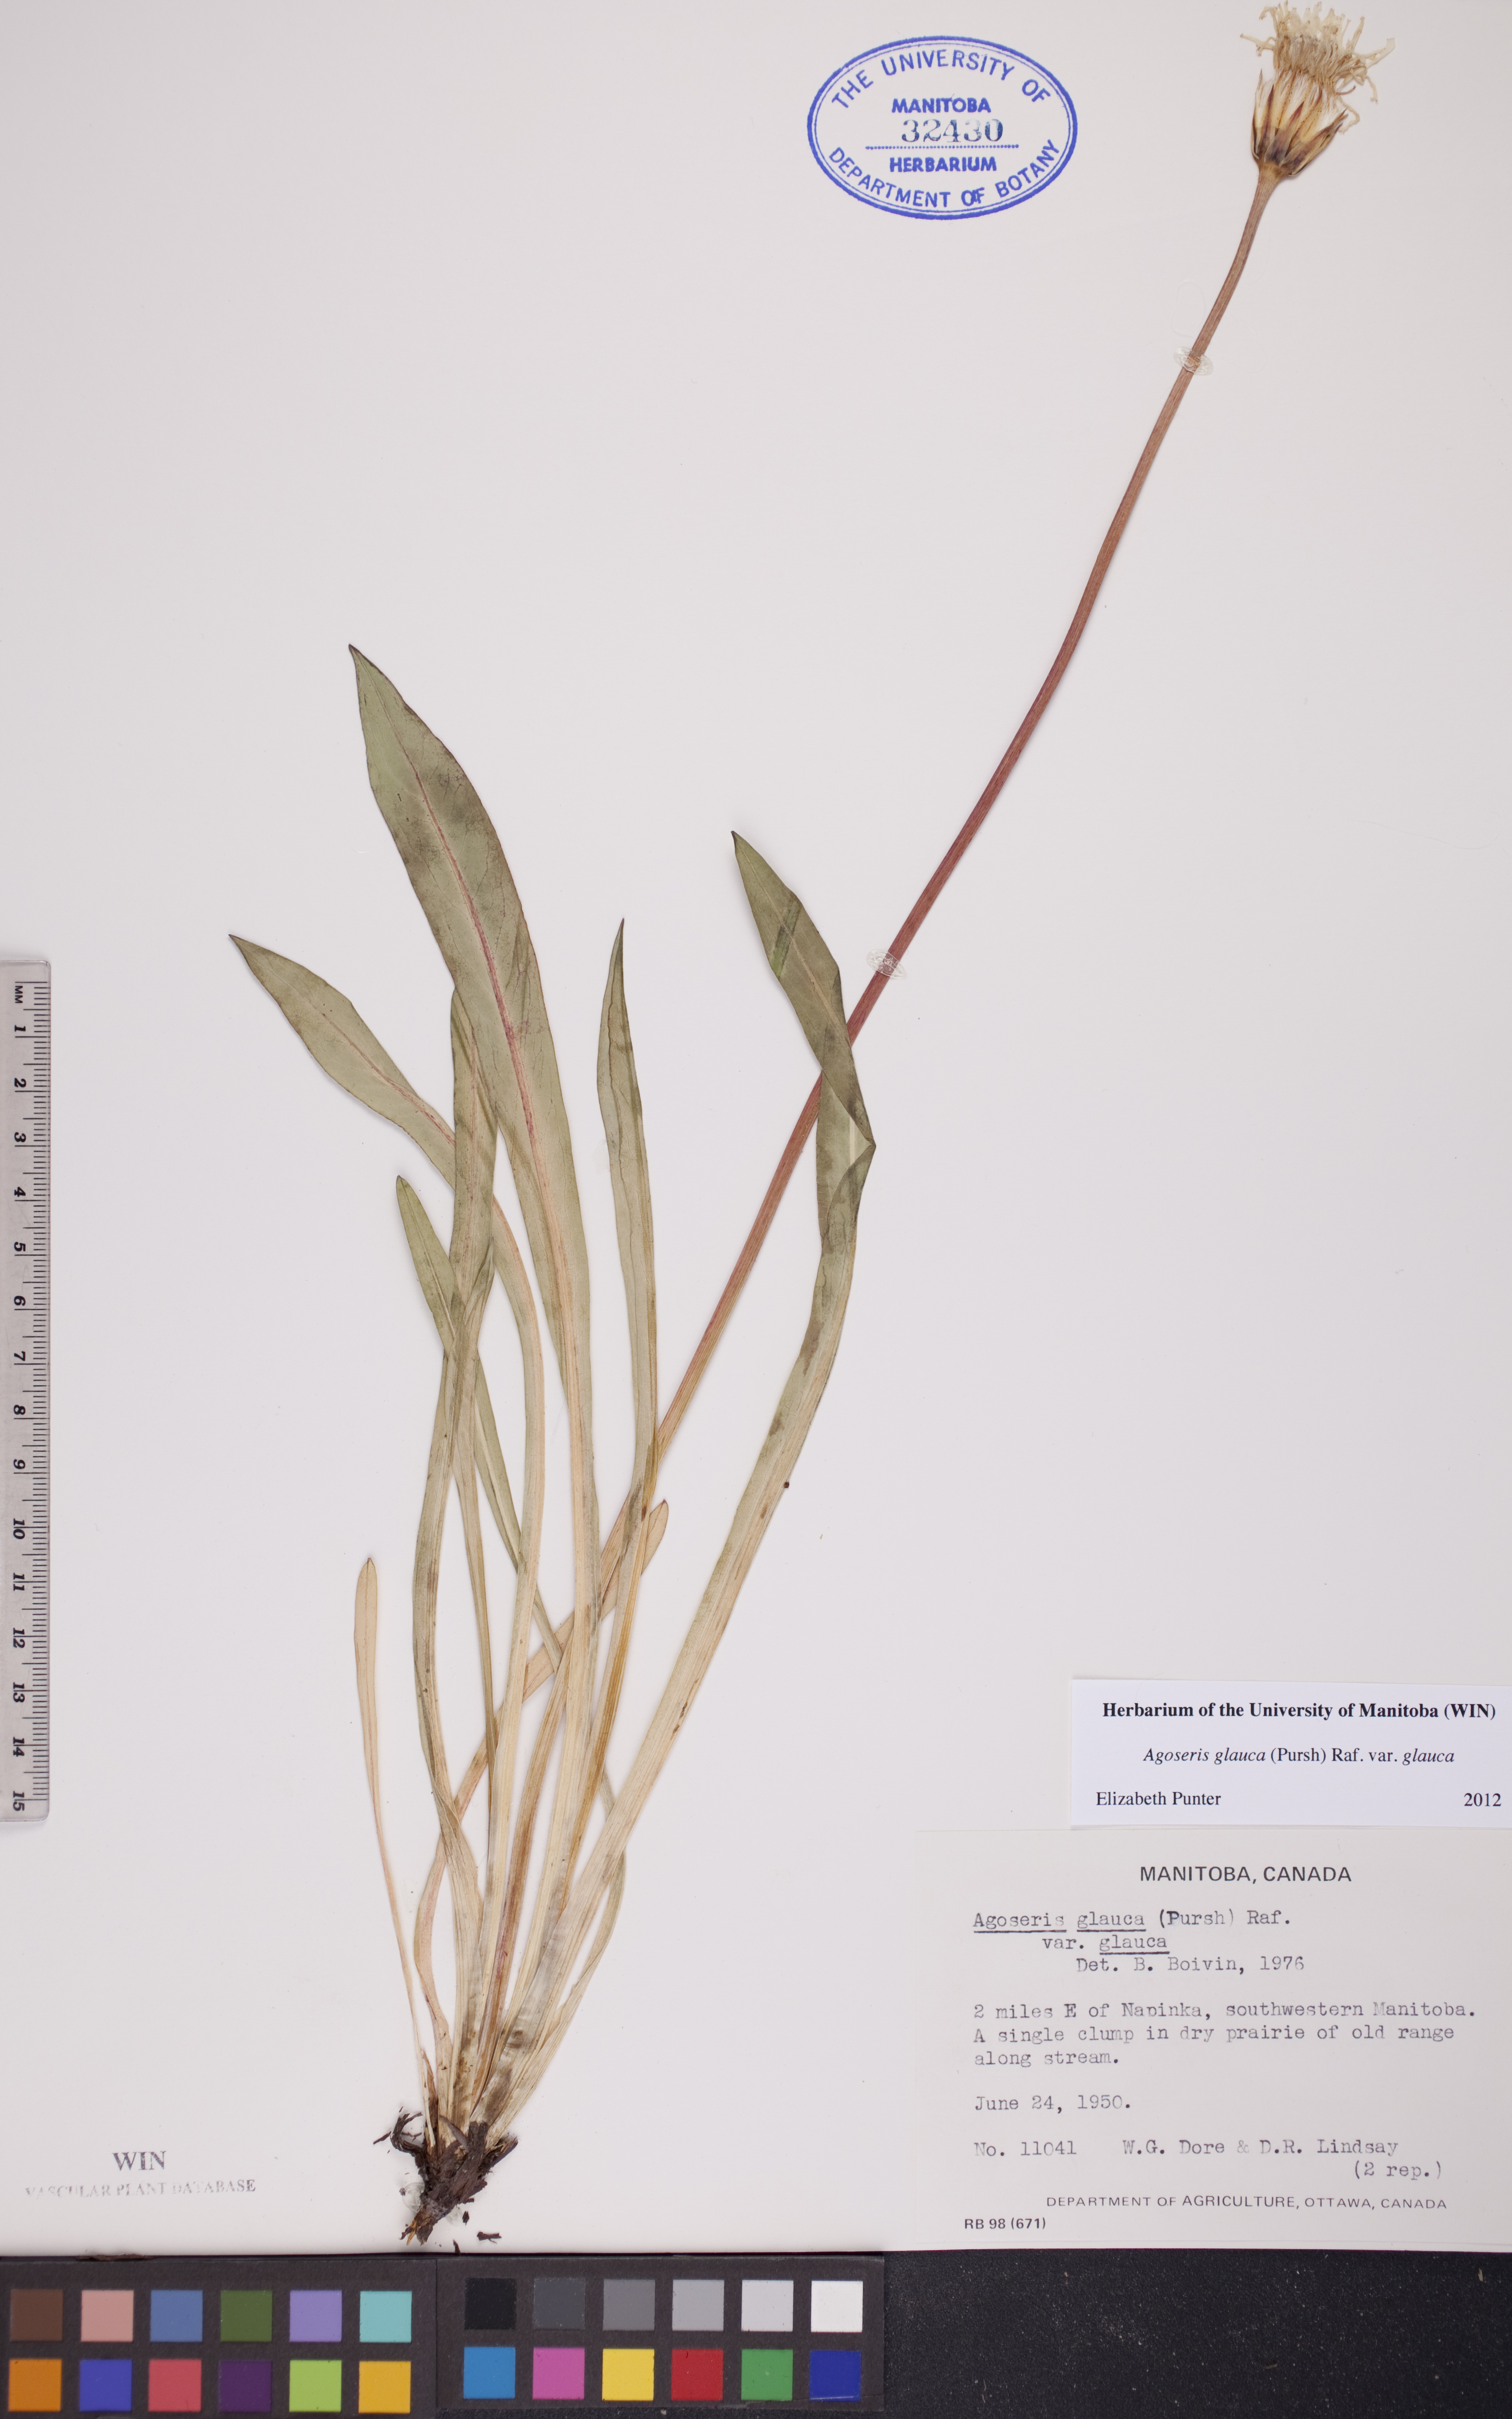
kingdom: Plantae
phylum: Tracheophyta
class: Magnoliopsida
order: Asterales
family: Asteraceae
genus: Agoseris
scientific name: Agoseris glauca
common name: Prairie agoseris
